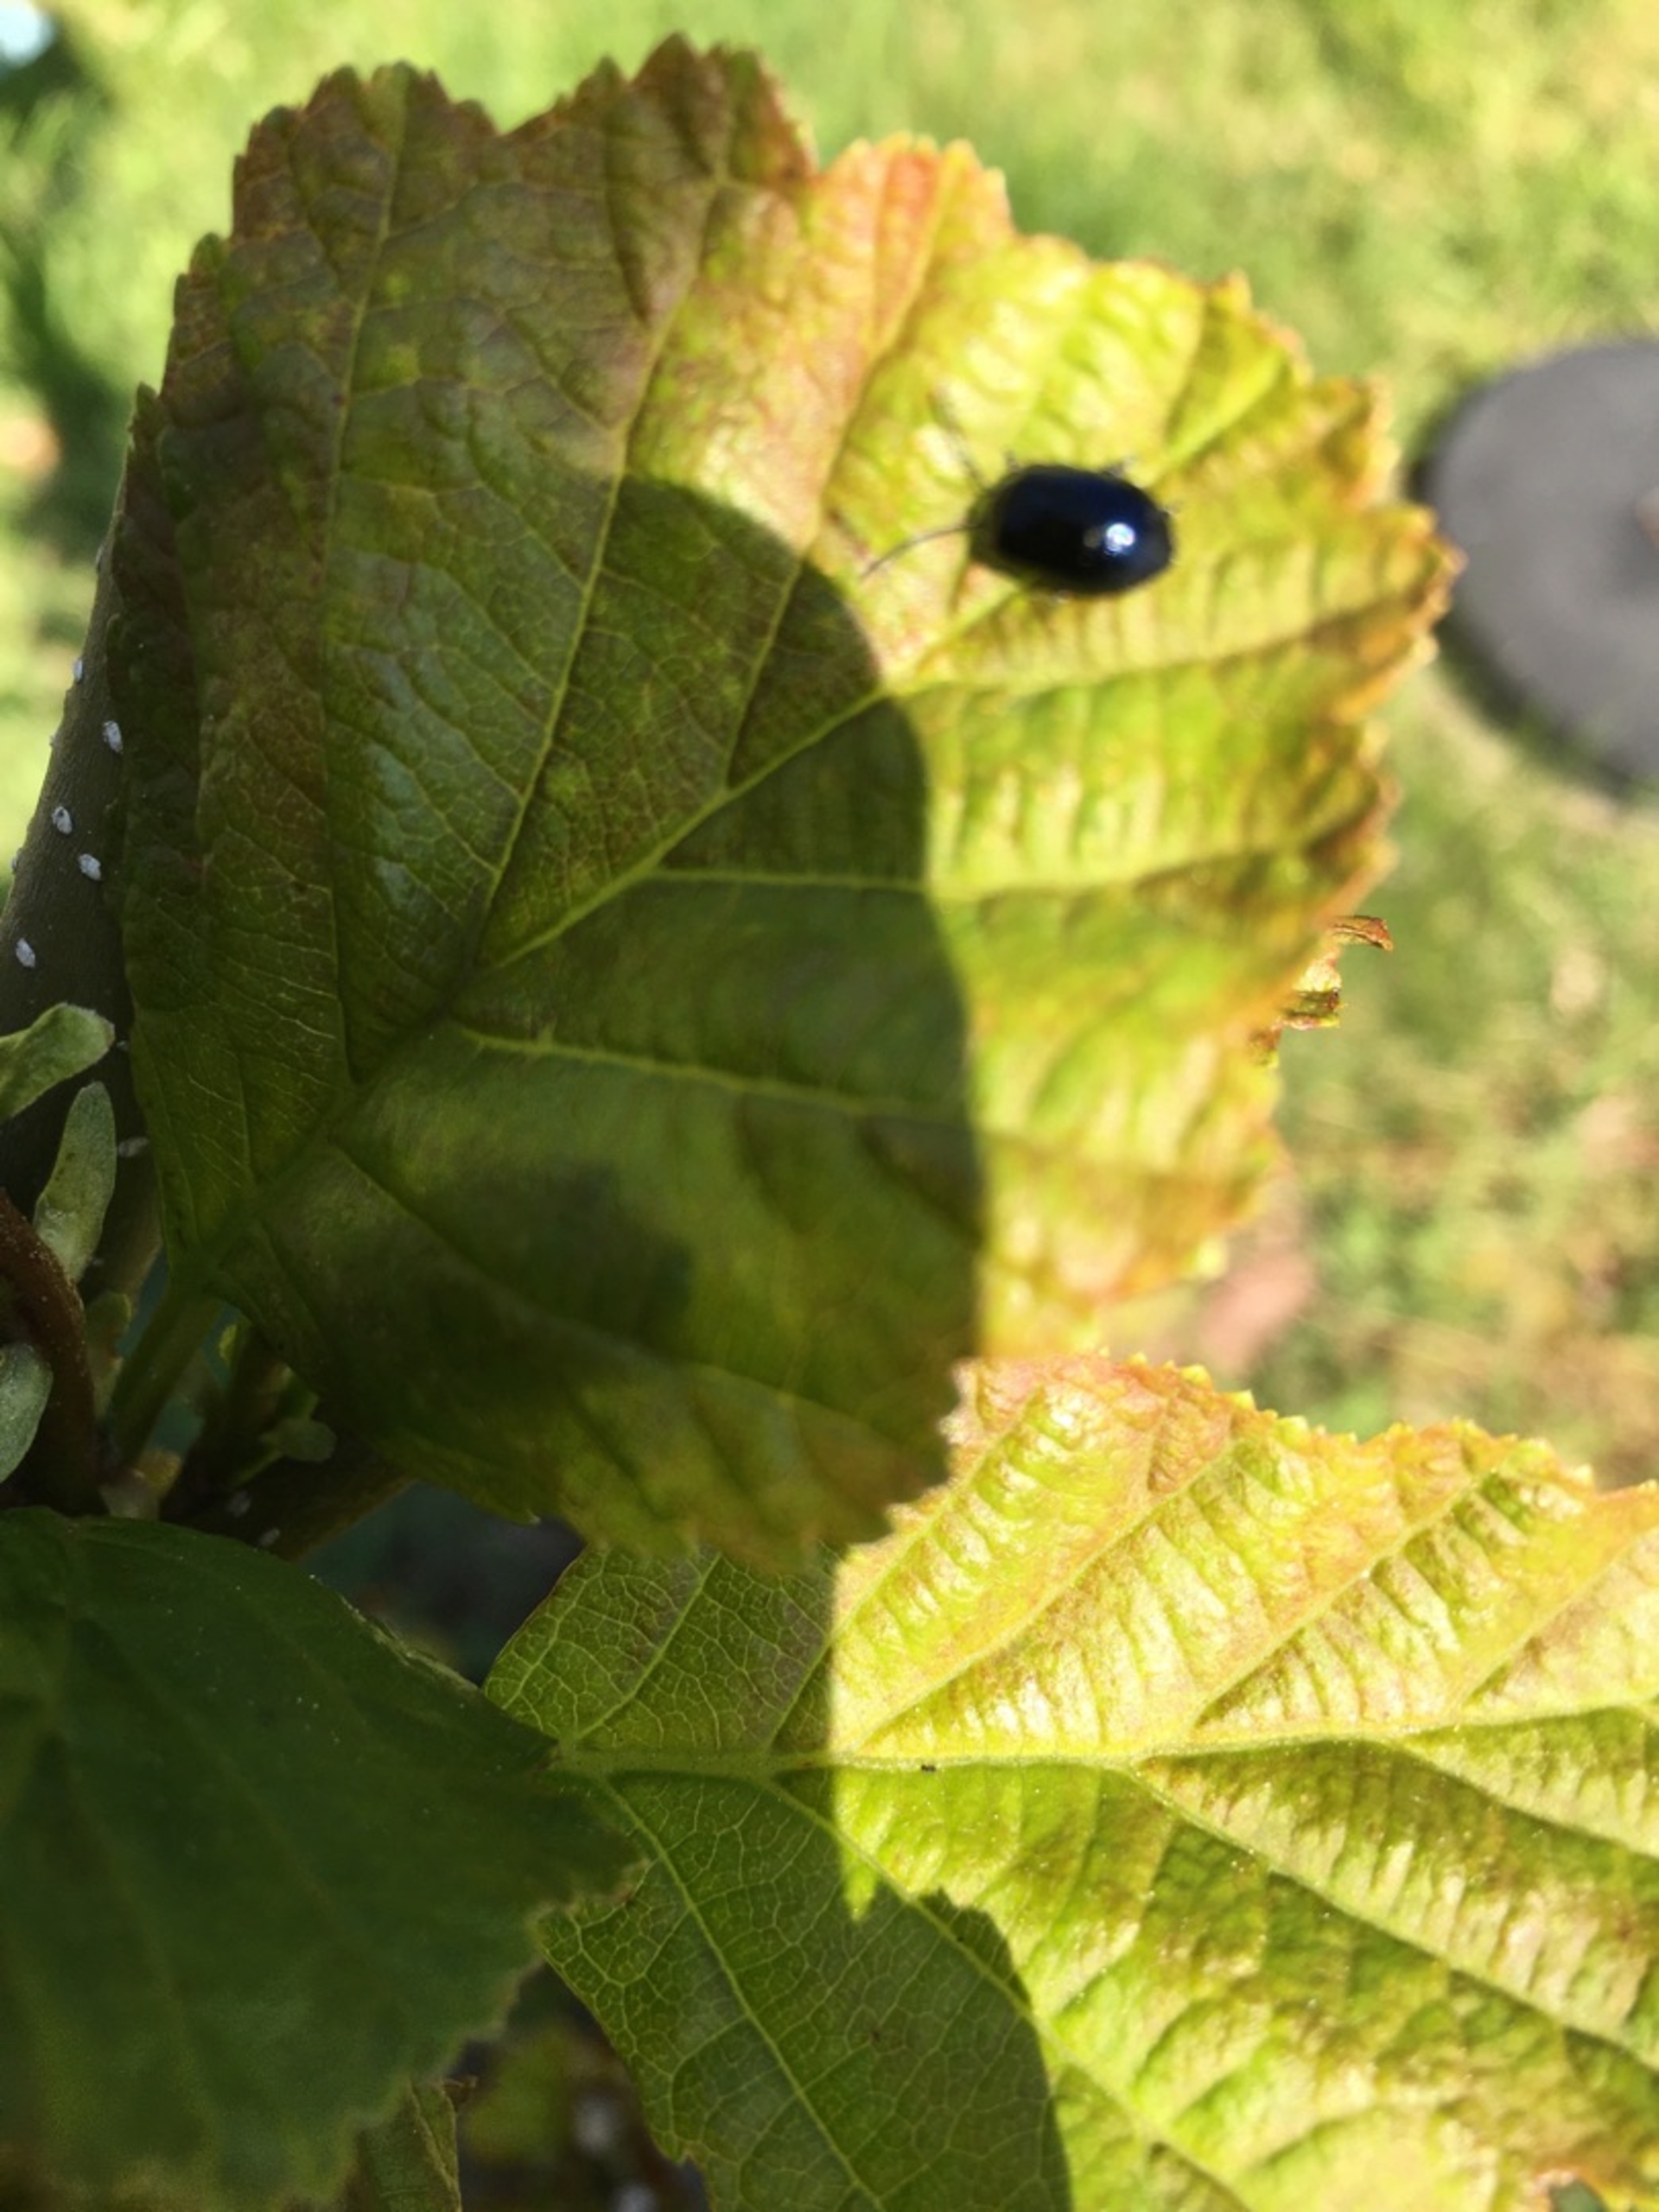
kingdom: Animalia
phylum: Arthropoda
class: Insecta
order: Coleoptera
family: Chrysomelidae
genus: Agelastica
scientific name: Agelastica alni
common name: Ellebladbille
